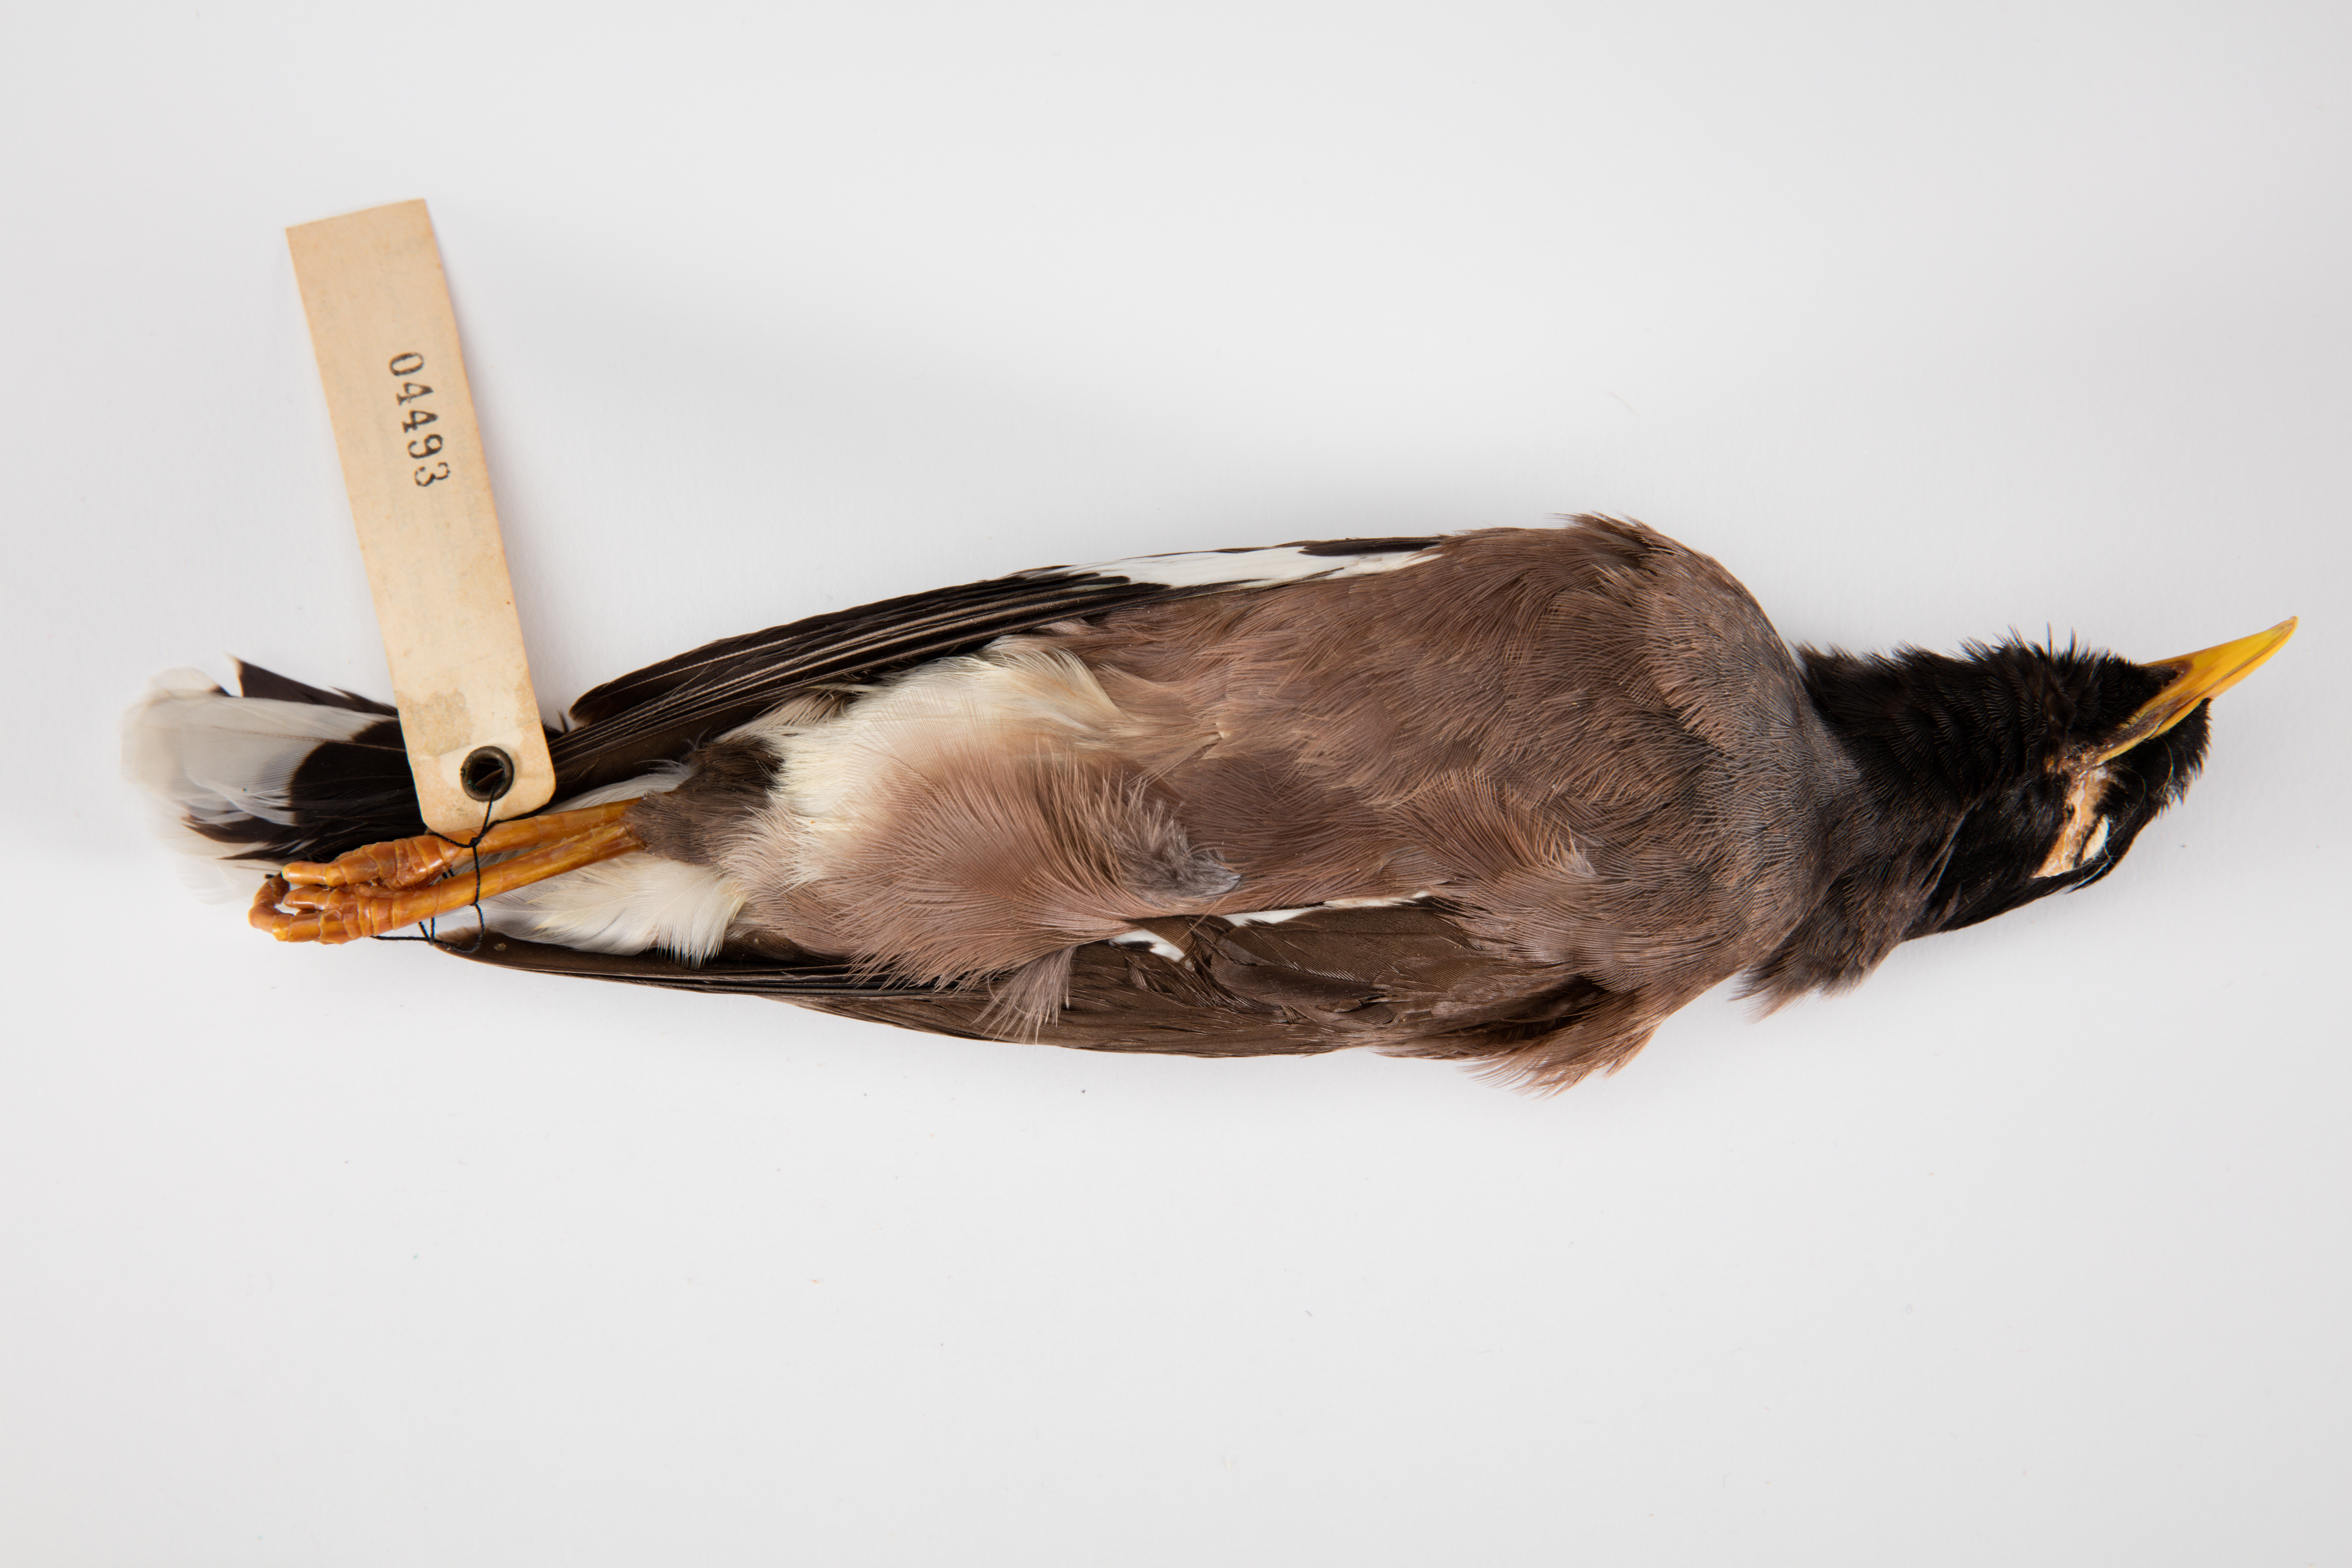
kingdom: Animalia
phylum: Chordata
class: Aves
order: Passeriformes
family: Sturnidae
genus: Acridotheres
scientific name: Acridotheres tristis
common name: Common myna
